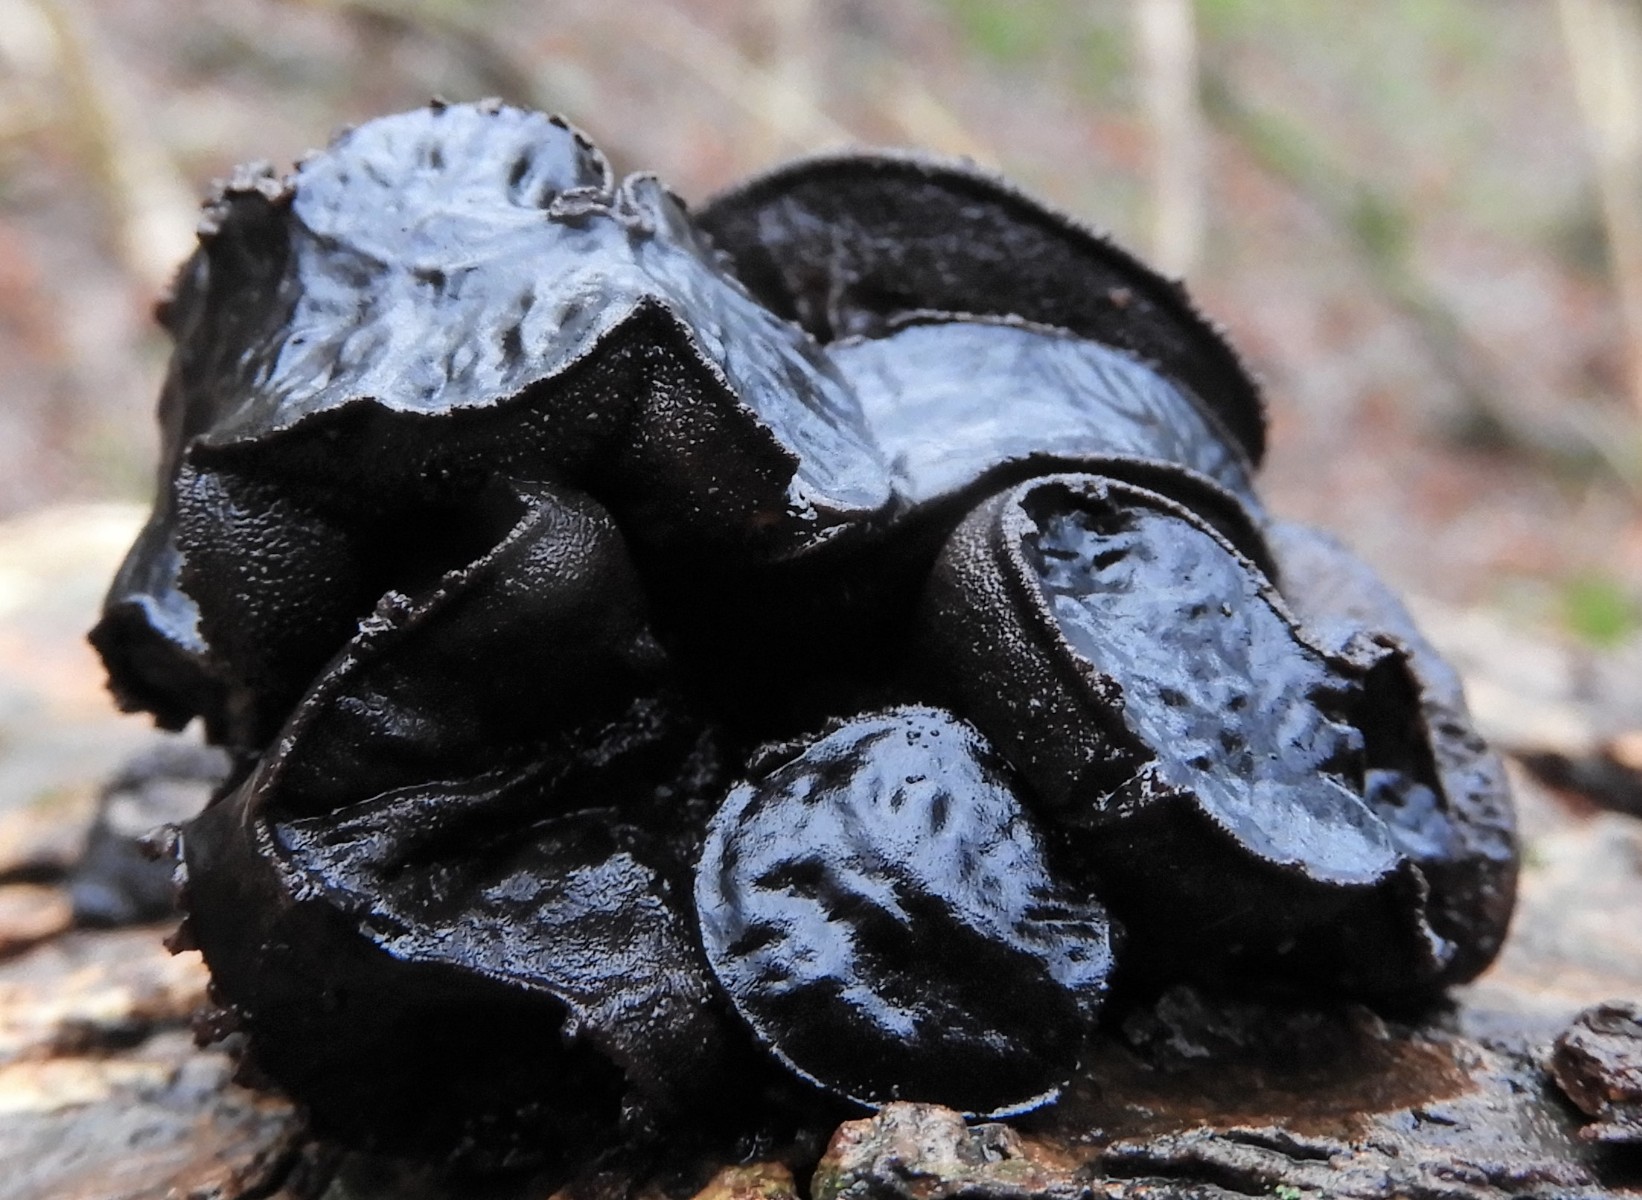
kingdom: Fungi
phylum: Ascomycota
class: Leotiomycetes
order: Phacidiales
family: Phacidiaceae
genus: Bulgaria
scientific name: Bulgaria inquinans
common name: afsmittende topsvamp
